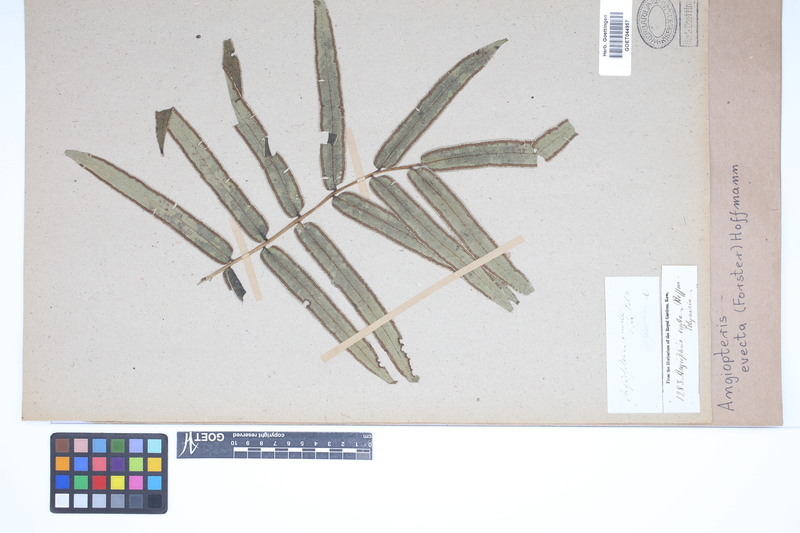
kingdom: Plantae
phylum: Tracheophyta
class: Polypodiopsida
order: Marattiales
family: Marattiaceae
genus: Angiopteris
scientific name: Angiopteris evecta
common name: Mule's-foot fern
